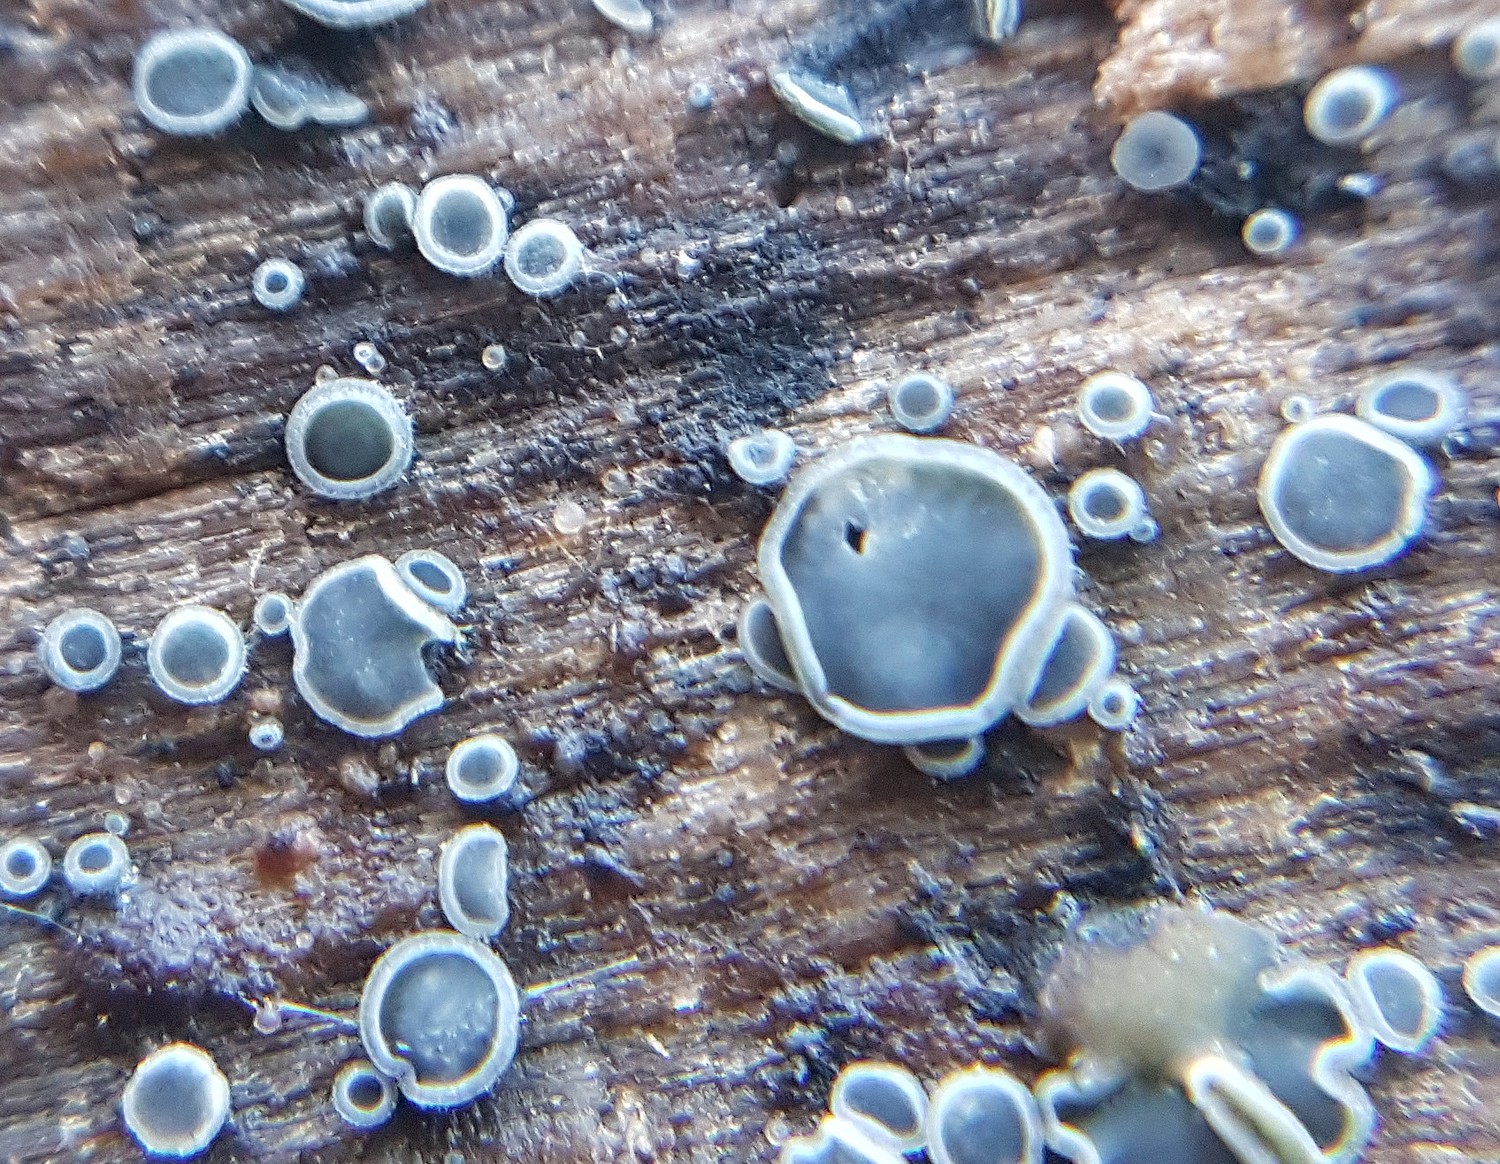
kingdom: Fungi
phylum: Ascomycota
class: Leotiomycetes
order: Helotiales
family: Mollisiaceae
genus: Mollisia
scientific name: Mollisia
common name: gråskive
